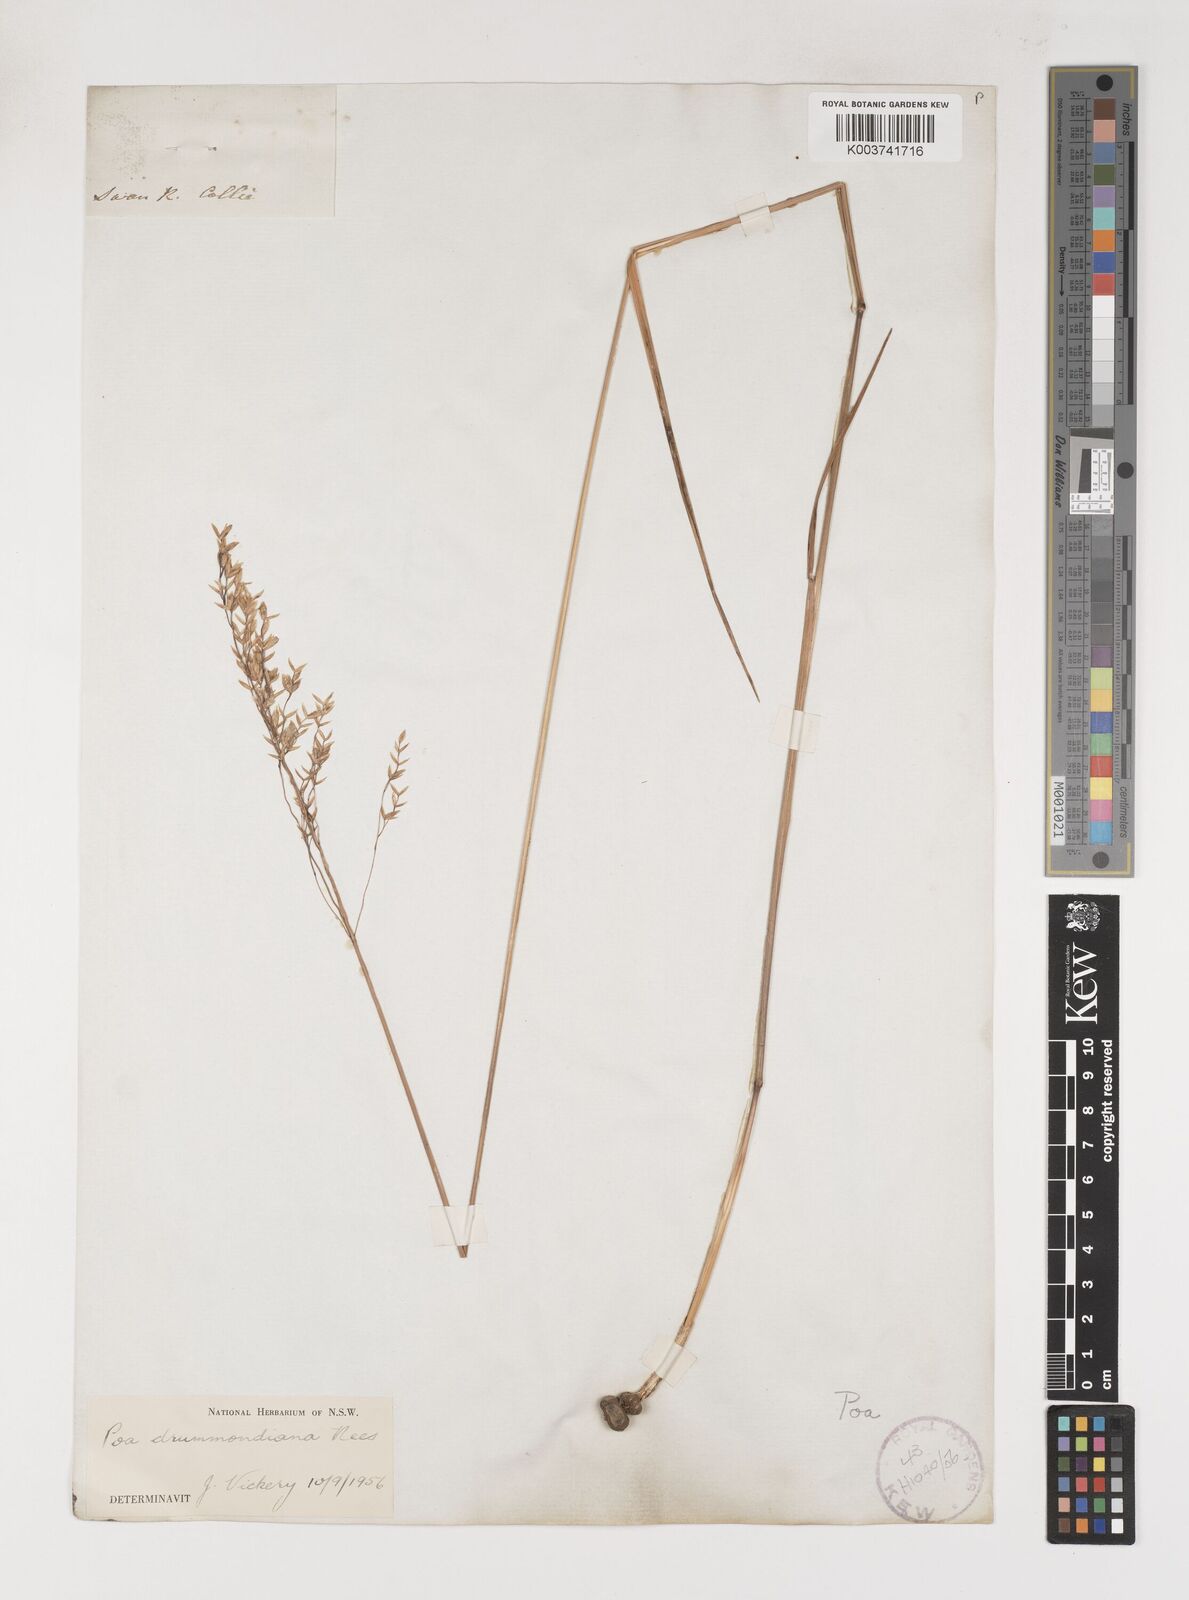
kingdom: Plantae
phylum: Tracheophyta
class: Liliopsida
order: Poales
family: Poaceae
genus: Poa
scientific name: Poa drummondiana
